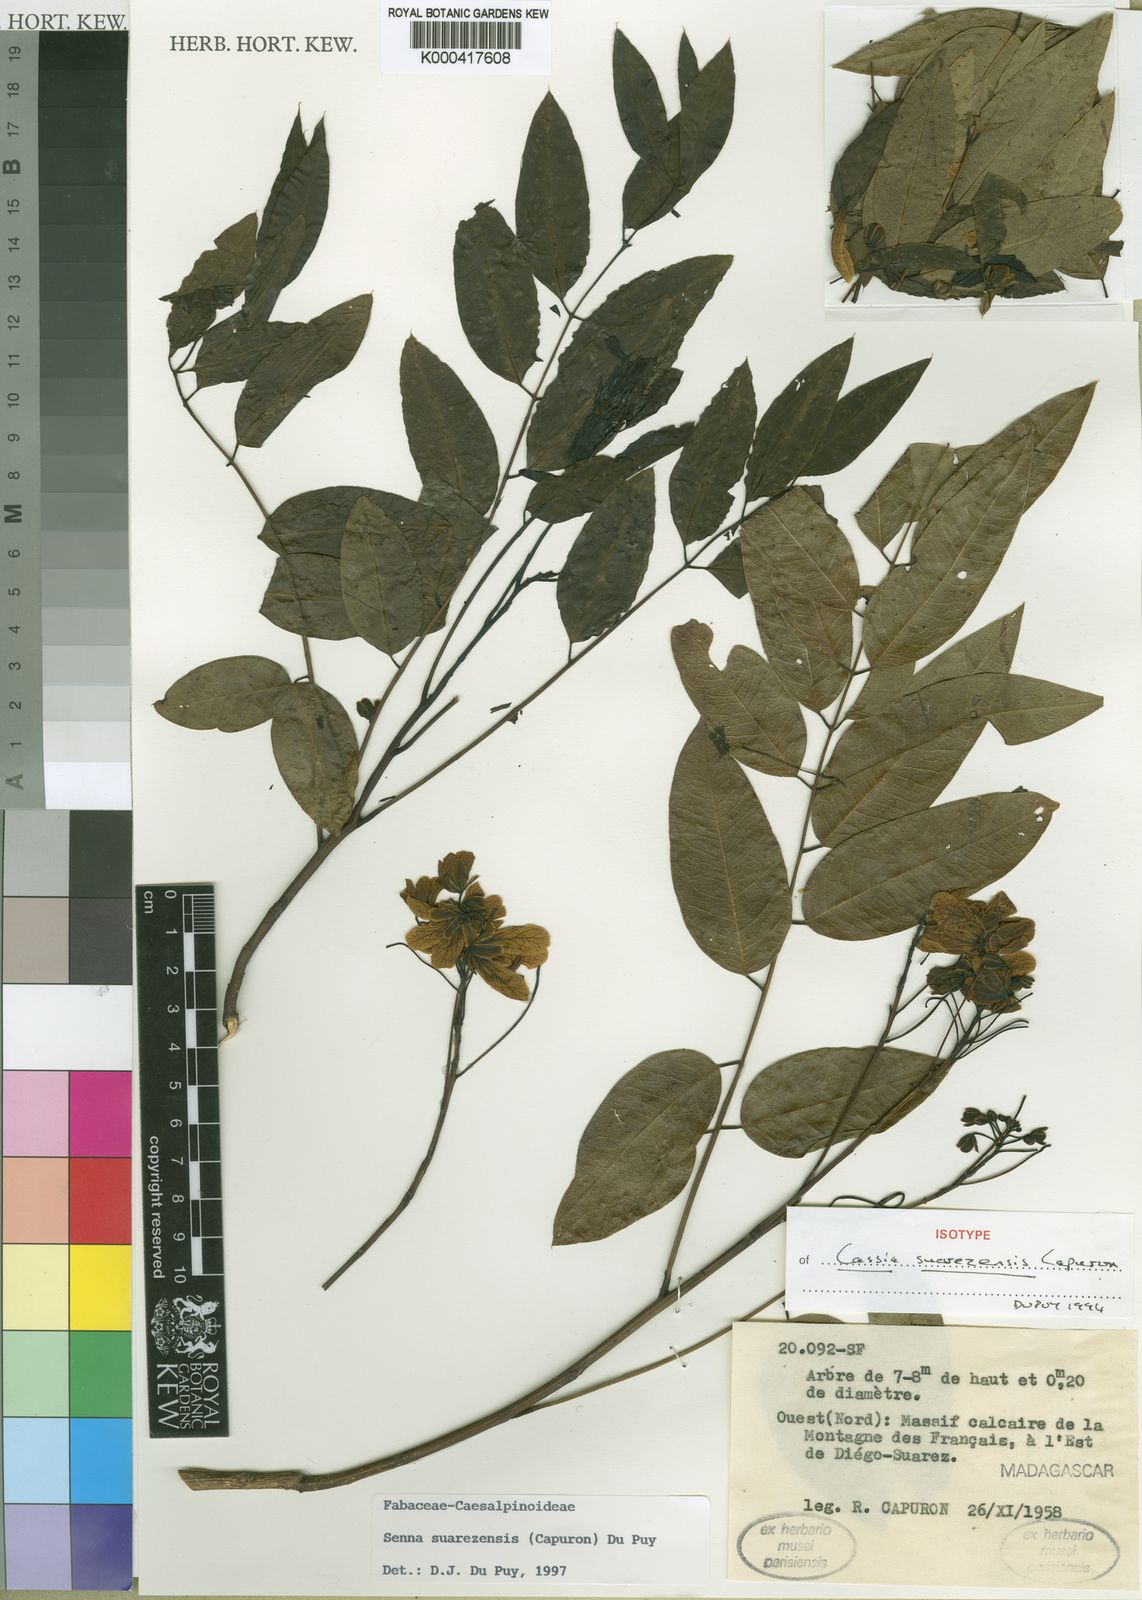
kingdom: Plantae
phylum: Tracheophyta
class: Magnoliopsida
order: Fabales
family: Fabaceae
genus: Senna
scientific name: Senna suarezensis
